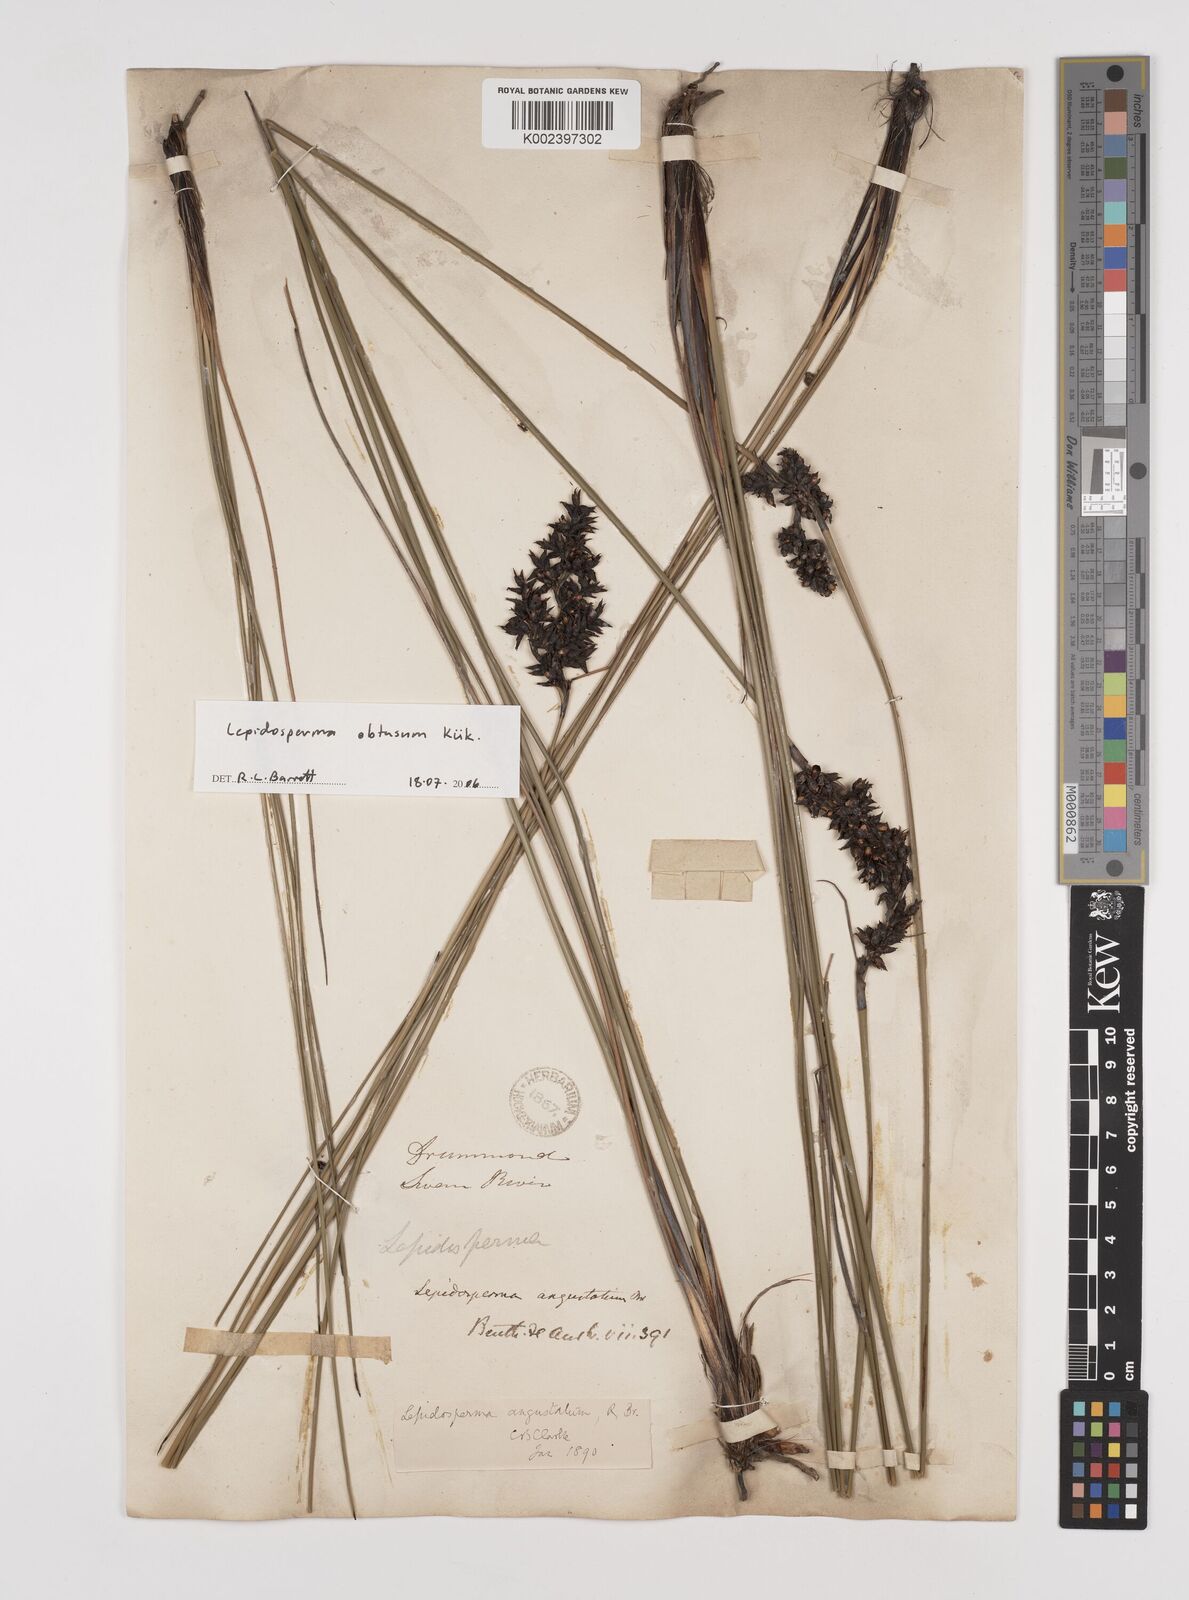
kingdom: Plantae
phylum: Tracheophyta
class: Liliopsida
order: Poales
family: Cyperaceae
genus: Lepidosperma
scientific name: Lepidosperma
